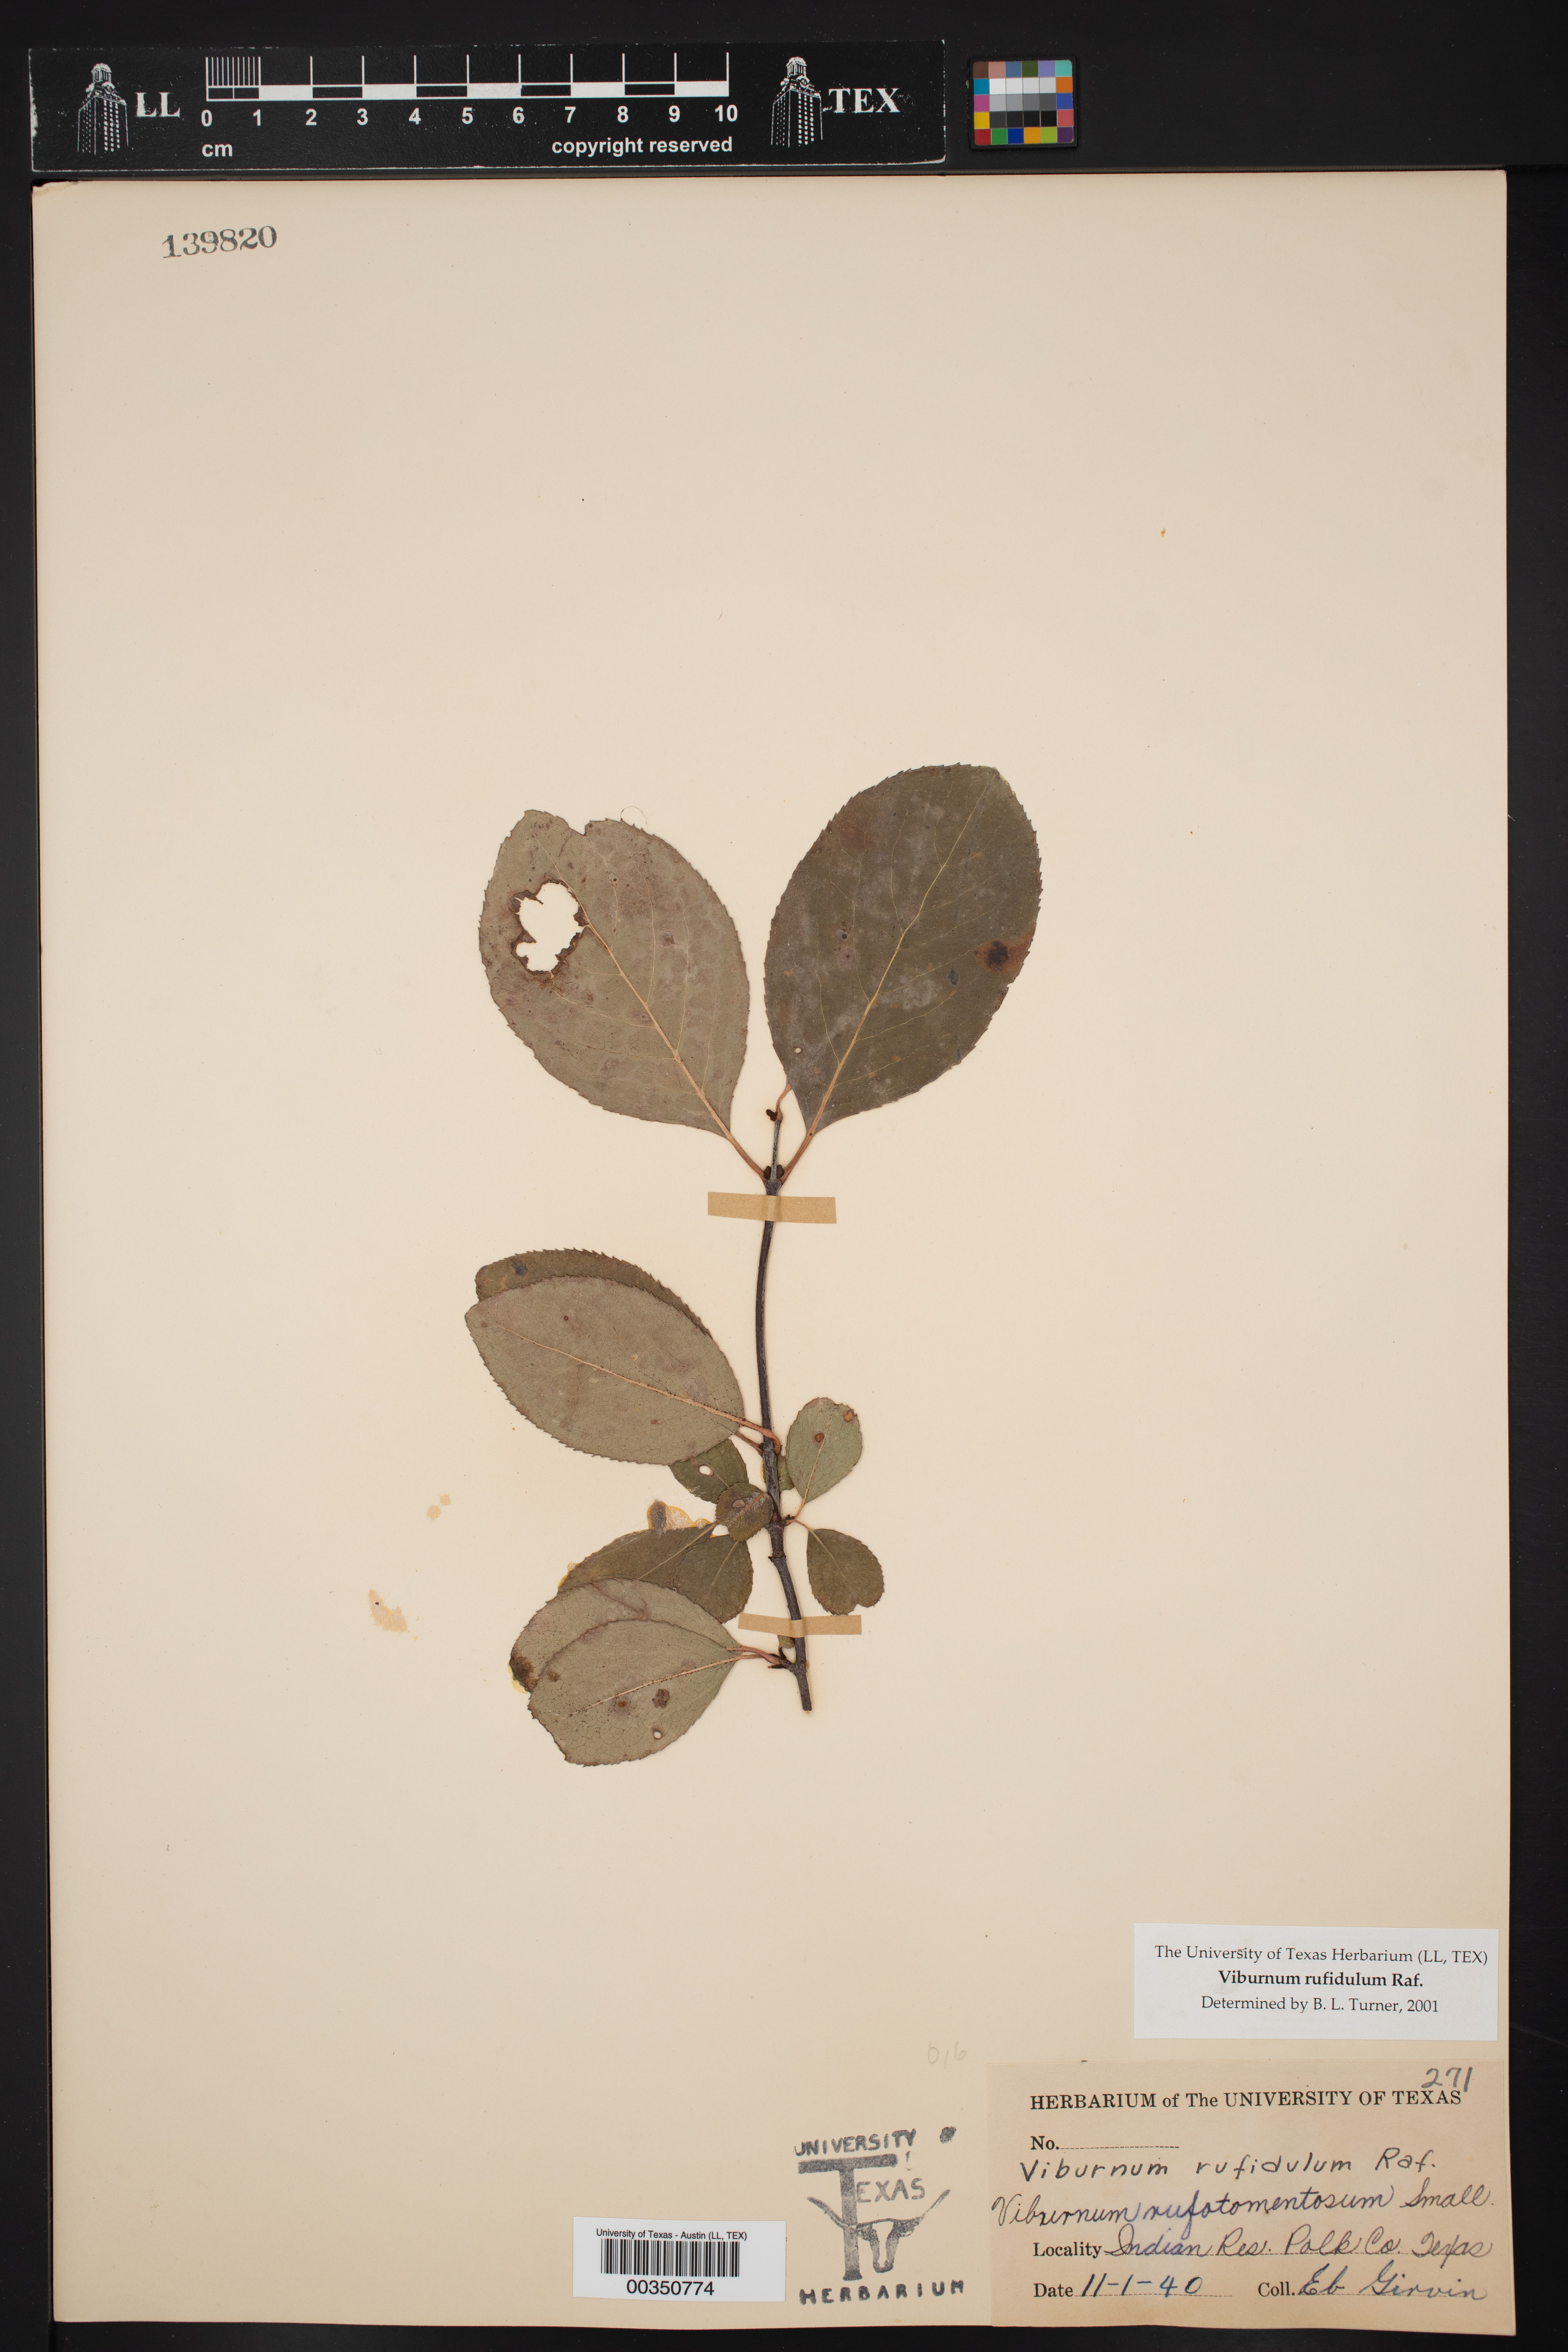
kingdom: Plantae
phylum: Tracheophyta
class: Magnoliopsida
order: Dipsacales
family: Viburnaceae
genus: Viburnum
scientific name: Viburnum rufidulum
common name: Blue haw
